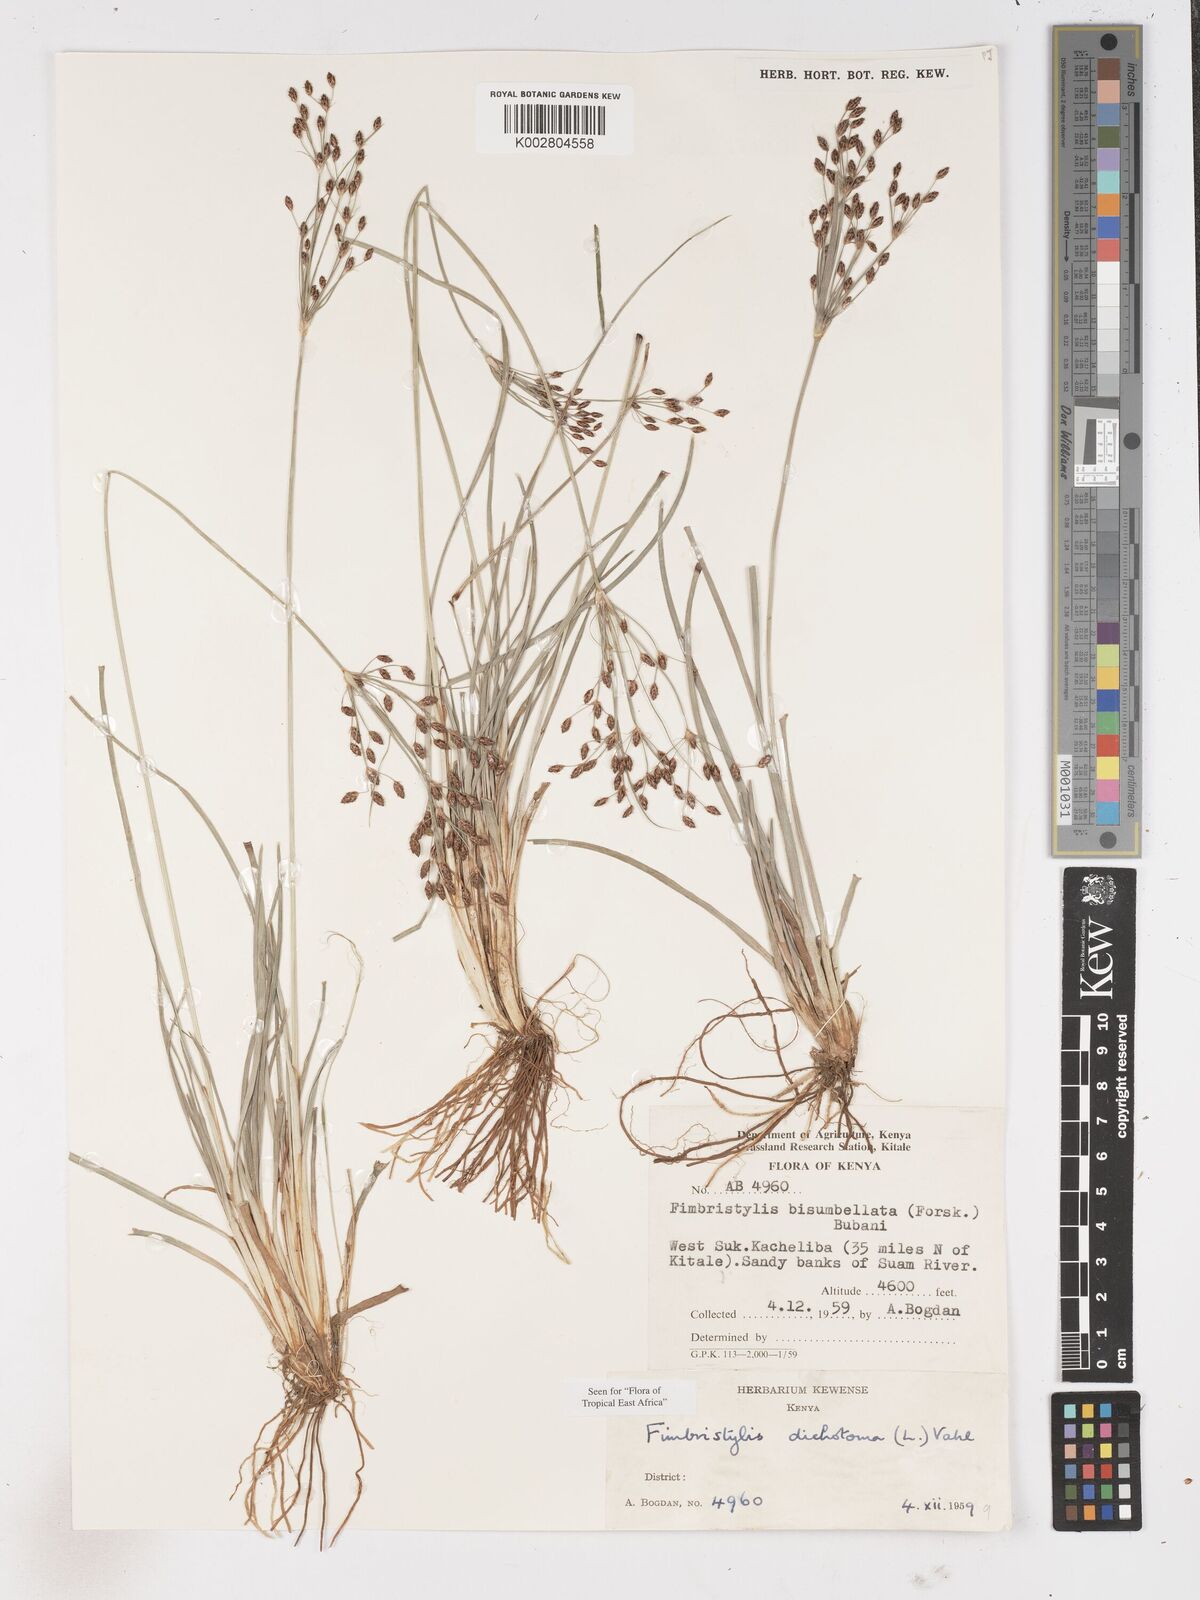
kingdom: Plantae
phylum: Tracheophyta
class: Liliopsida
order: Poales
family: Cyperaceae
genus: Fimbristylis
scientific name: Fimbristylis dichotoma
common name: Forked fimbry
